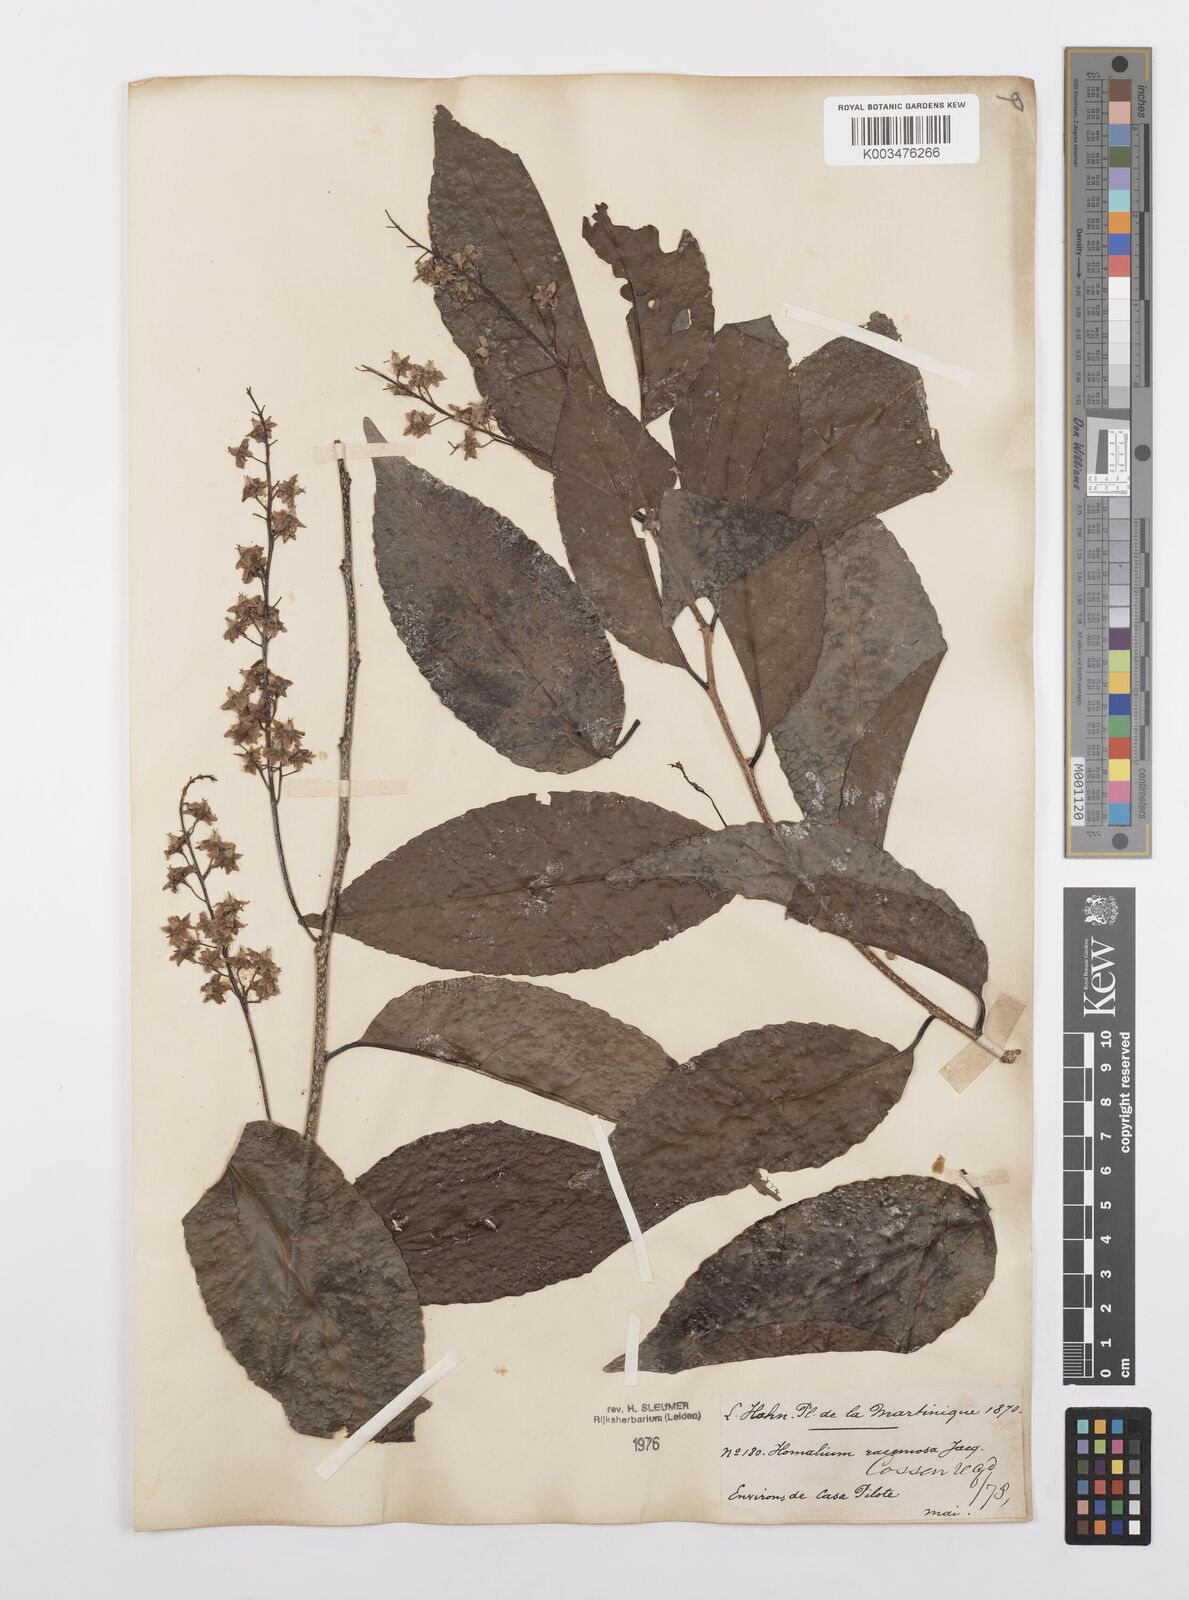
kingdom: Plantae
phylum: Tracheophyta
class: Magnoliopsida
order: Malpighiales
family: Salicaceae
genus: Homalium
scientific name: Homalium racemosum
